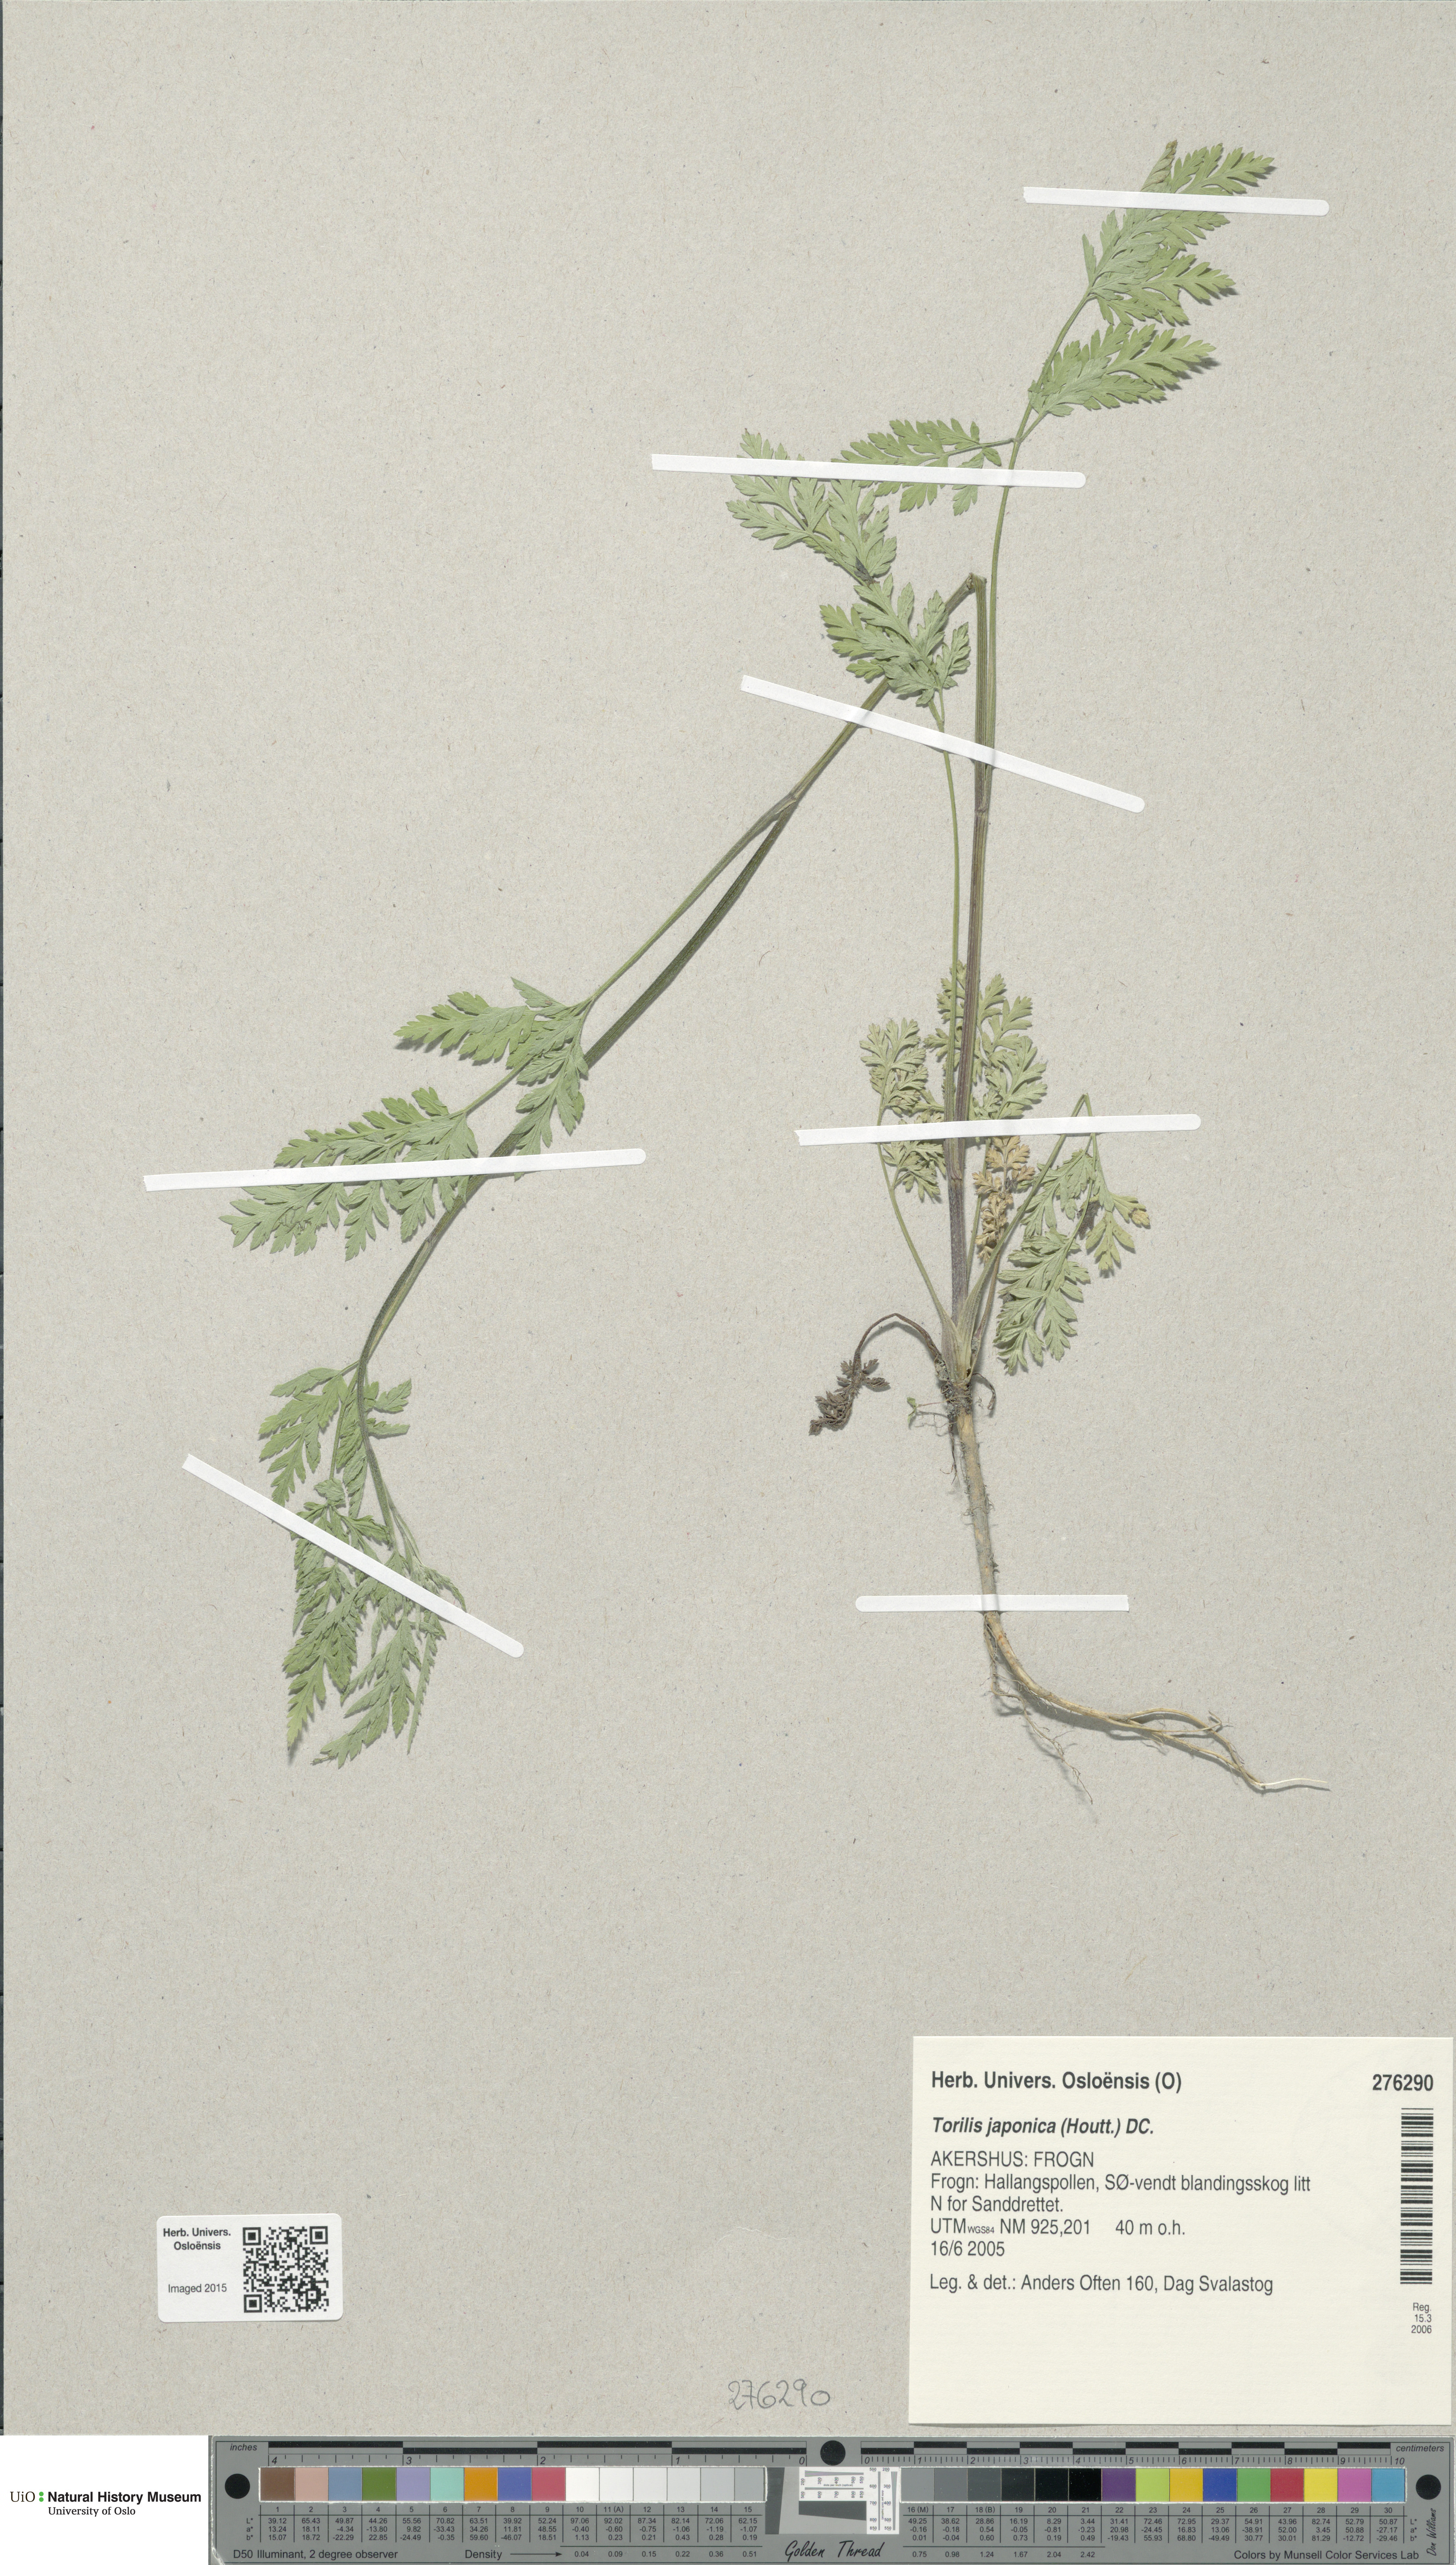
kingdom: Plantae
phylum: Tracheophyta
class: Magnoliopsida
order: Apiales
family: Apiaceae
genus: Torilis
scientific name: Torilis japonica
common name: Upright hedge-parsley
